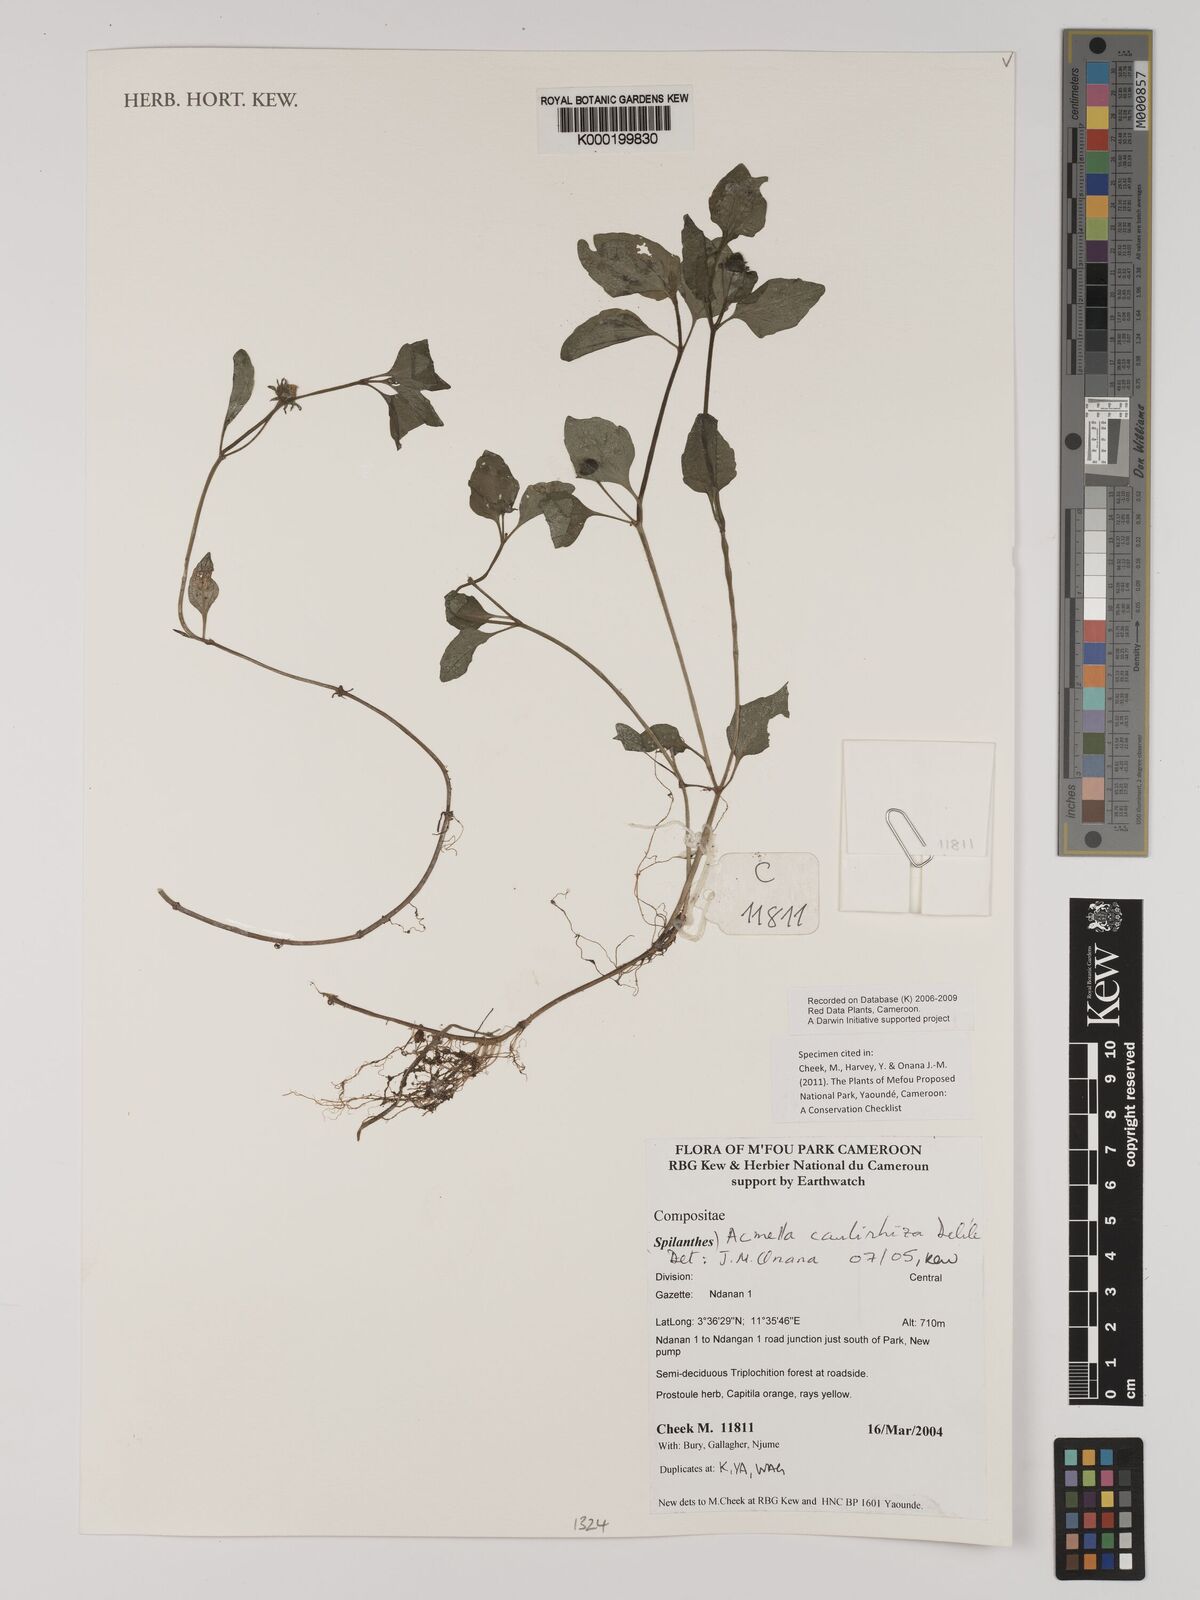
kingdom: Plantae
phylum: Tracheophyta
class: Magnoliopsida
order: Asterales
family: Asteraceae
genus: Acmella
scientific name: Acmella caulirhiza
